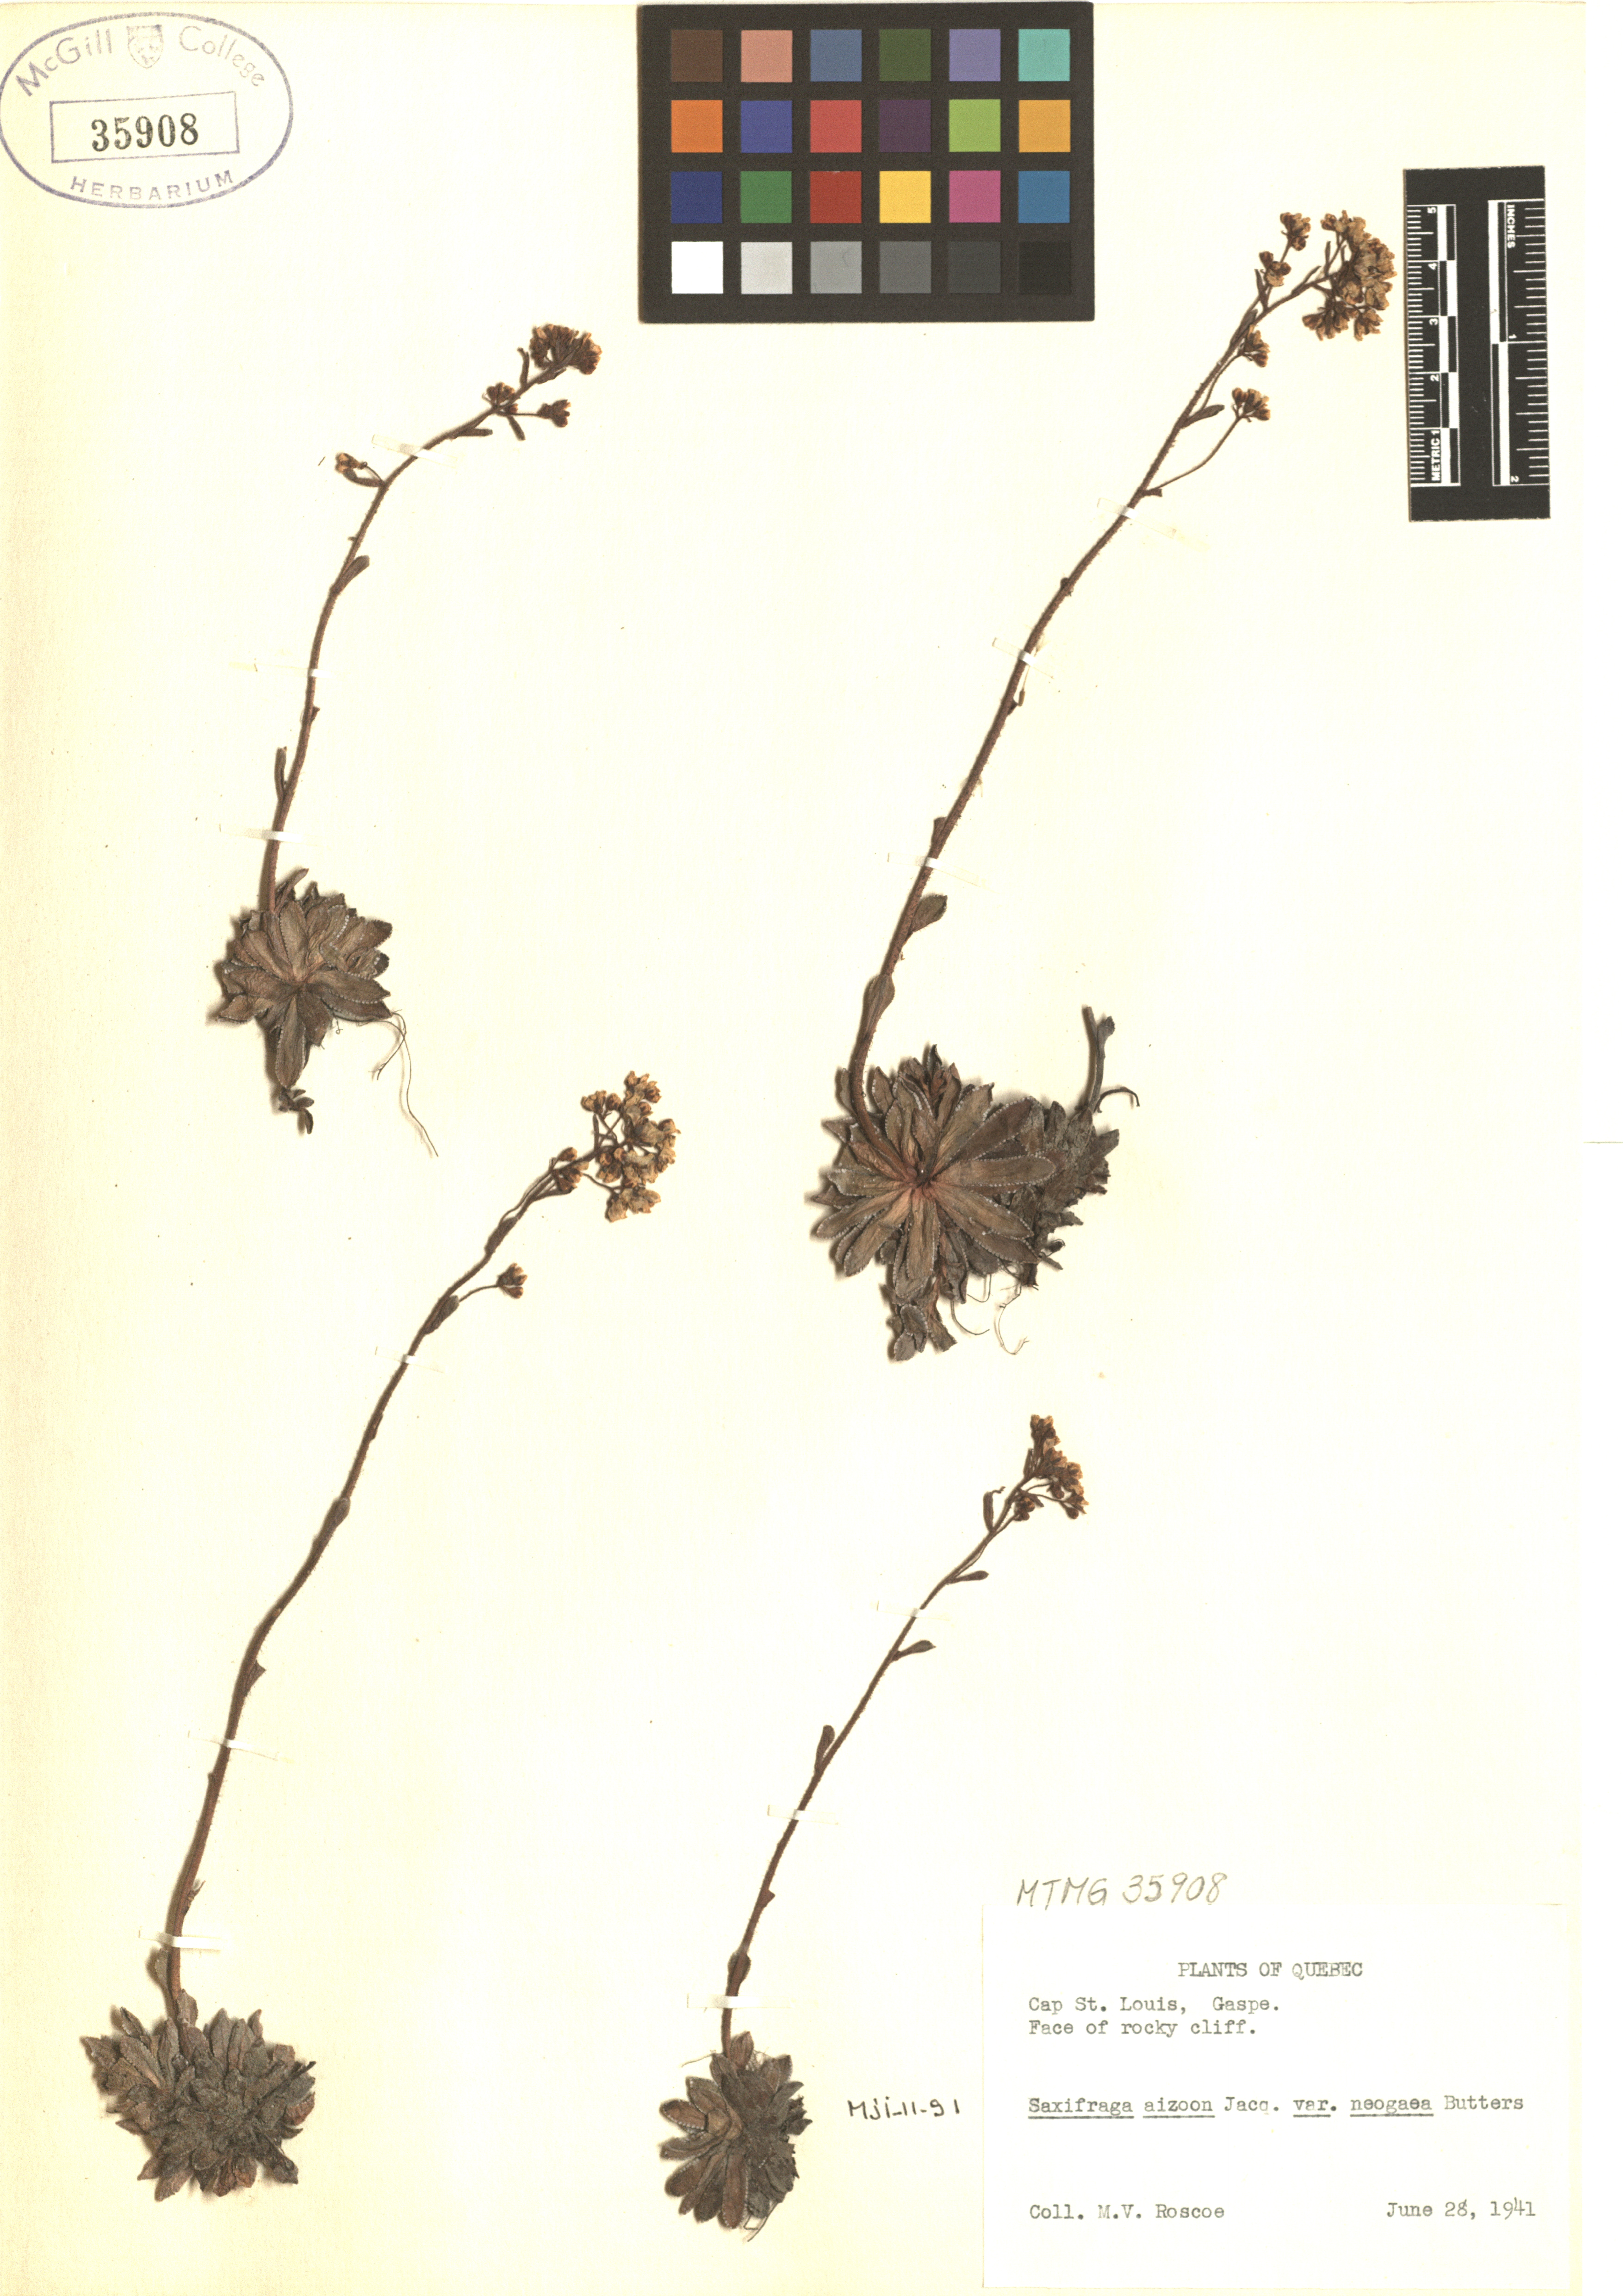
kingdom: Plantae
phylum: Tracheophyta
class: Magnoliopsida
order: Saxifragales
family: Saxifragaceae
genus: Saxifraga
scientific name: Saxifraga paniculata
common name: Livelong saxifrage
